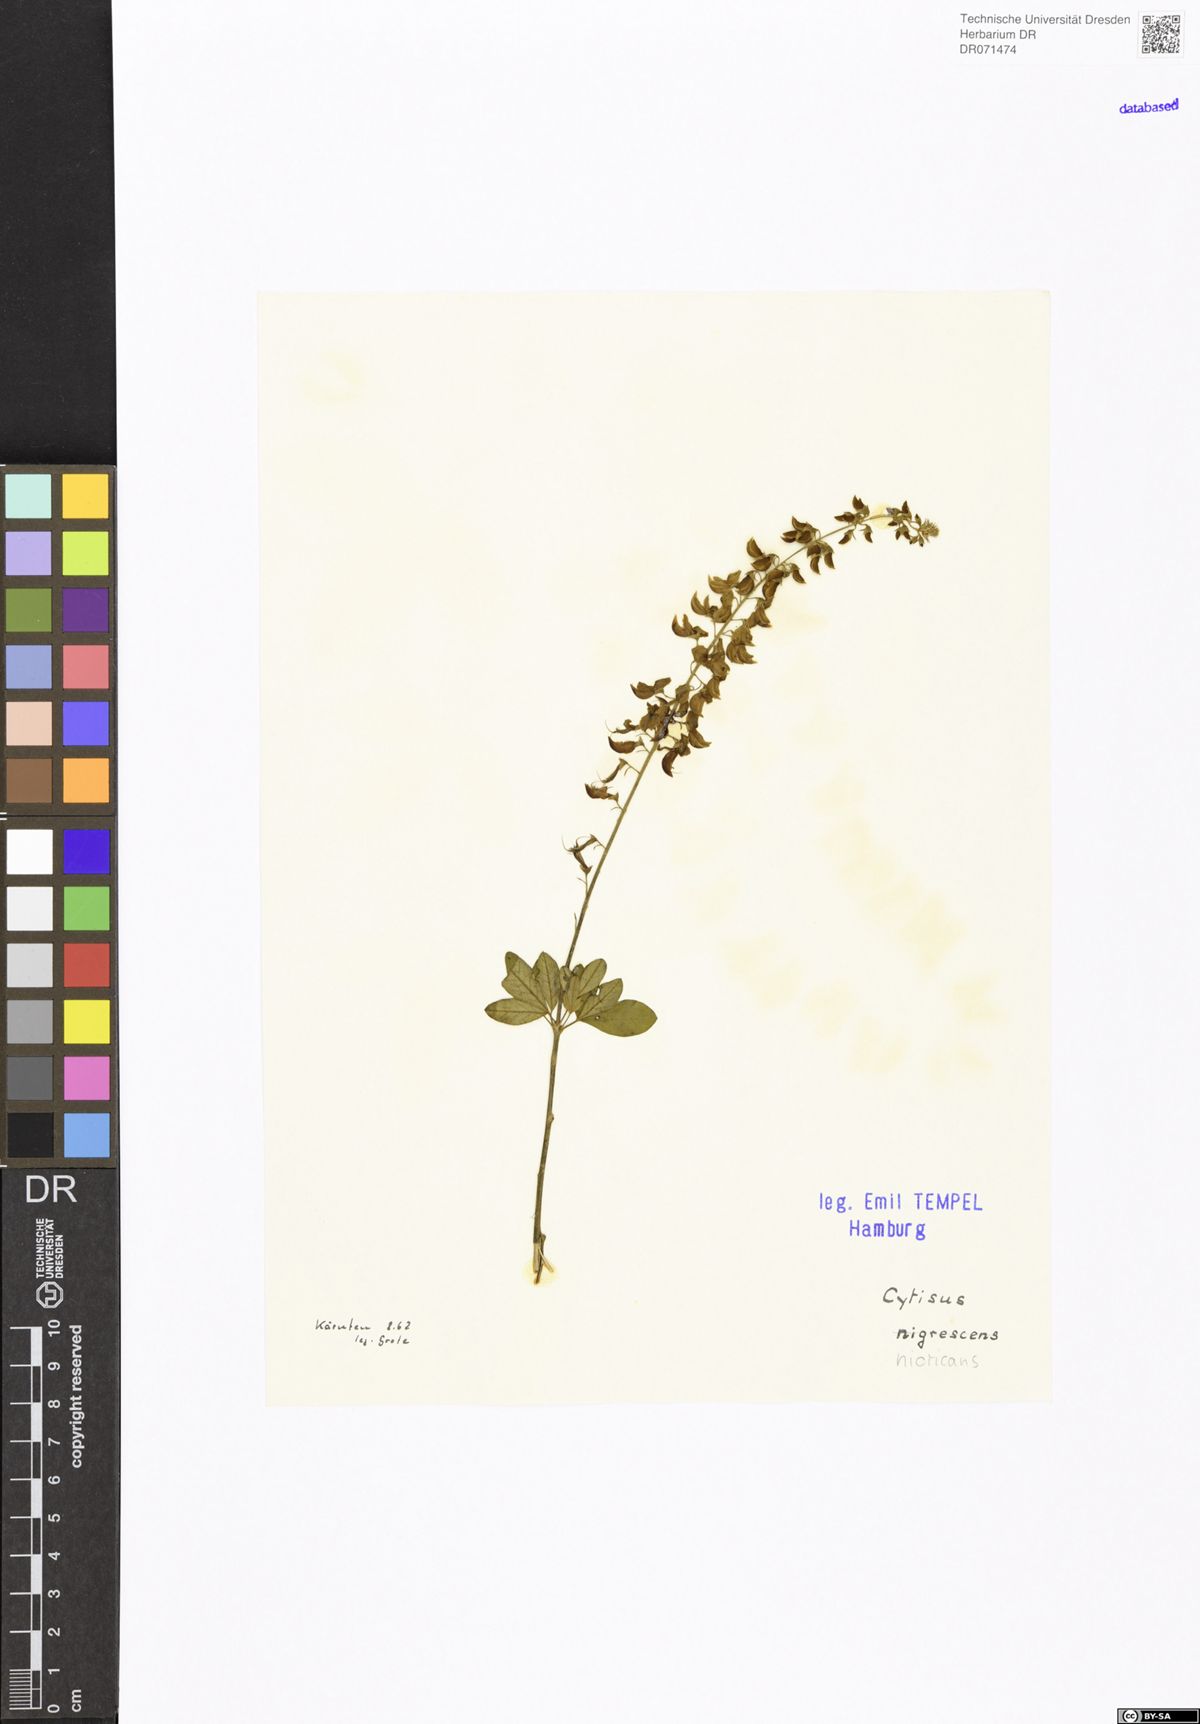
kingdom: Plantae
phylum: Tracheophyta
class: Magnoliopsida
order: Fabales
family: Fabaceae
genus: Cytisus
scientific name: Cytisus nigricans
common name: Black broom
